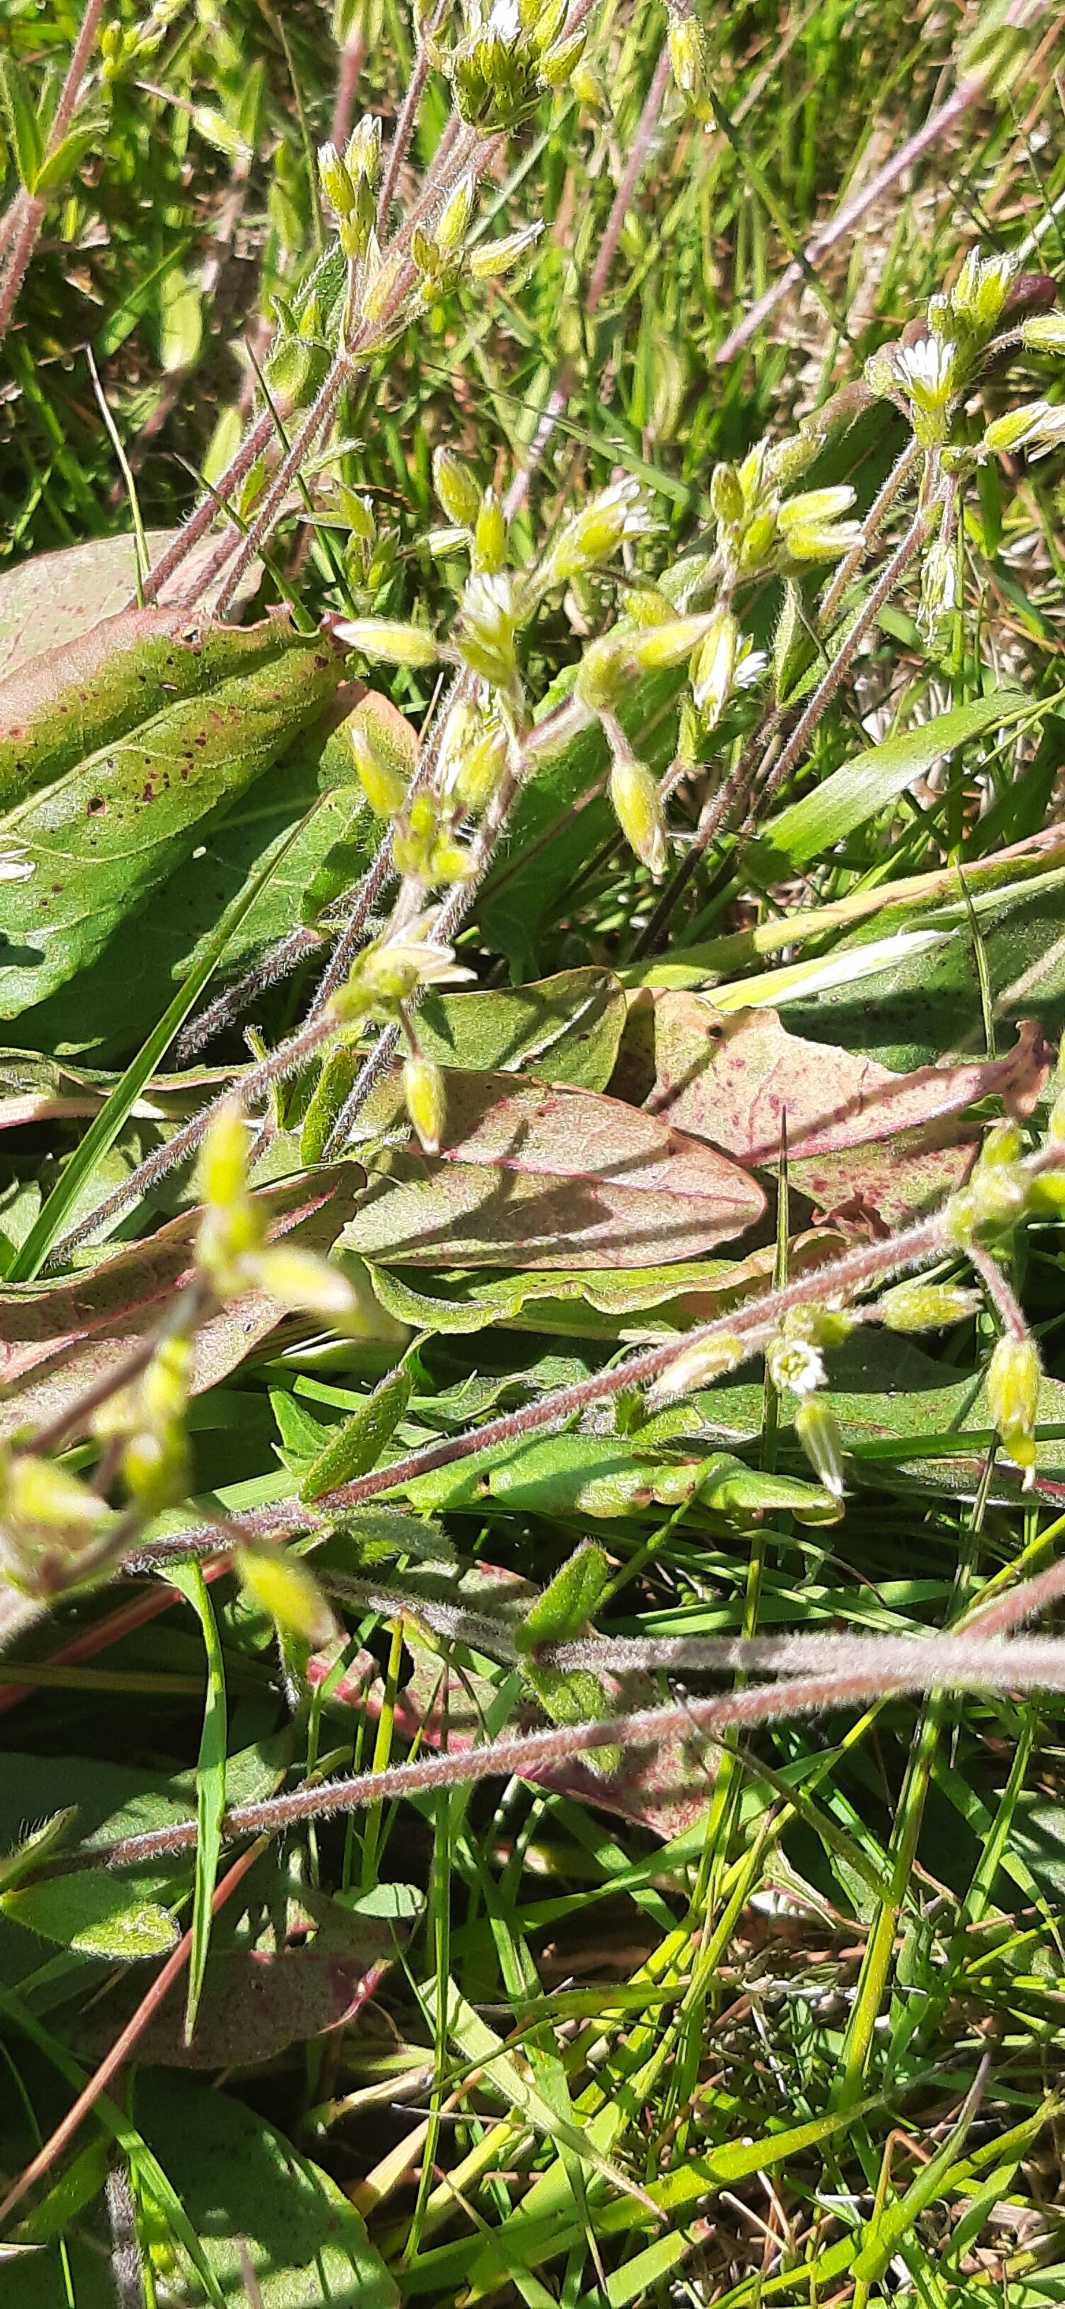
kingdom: Plantae
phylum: Tracheophyta
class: Magnoliopsida
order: Caryophyllales
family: Caryophyllaceae
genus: Cerastium
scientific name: Cerastium fontanum
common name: Almindelig hønsetarm
